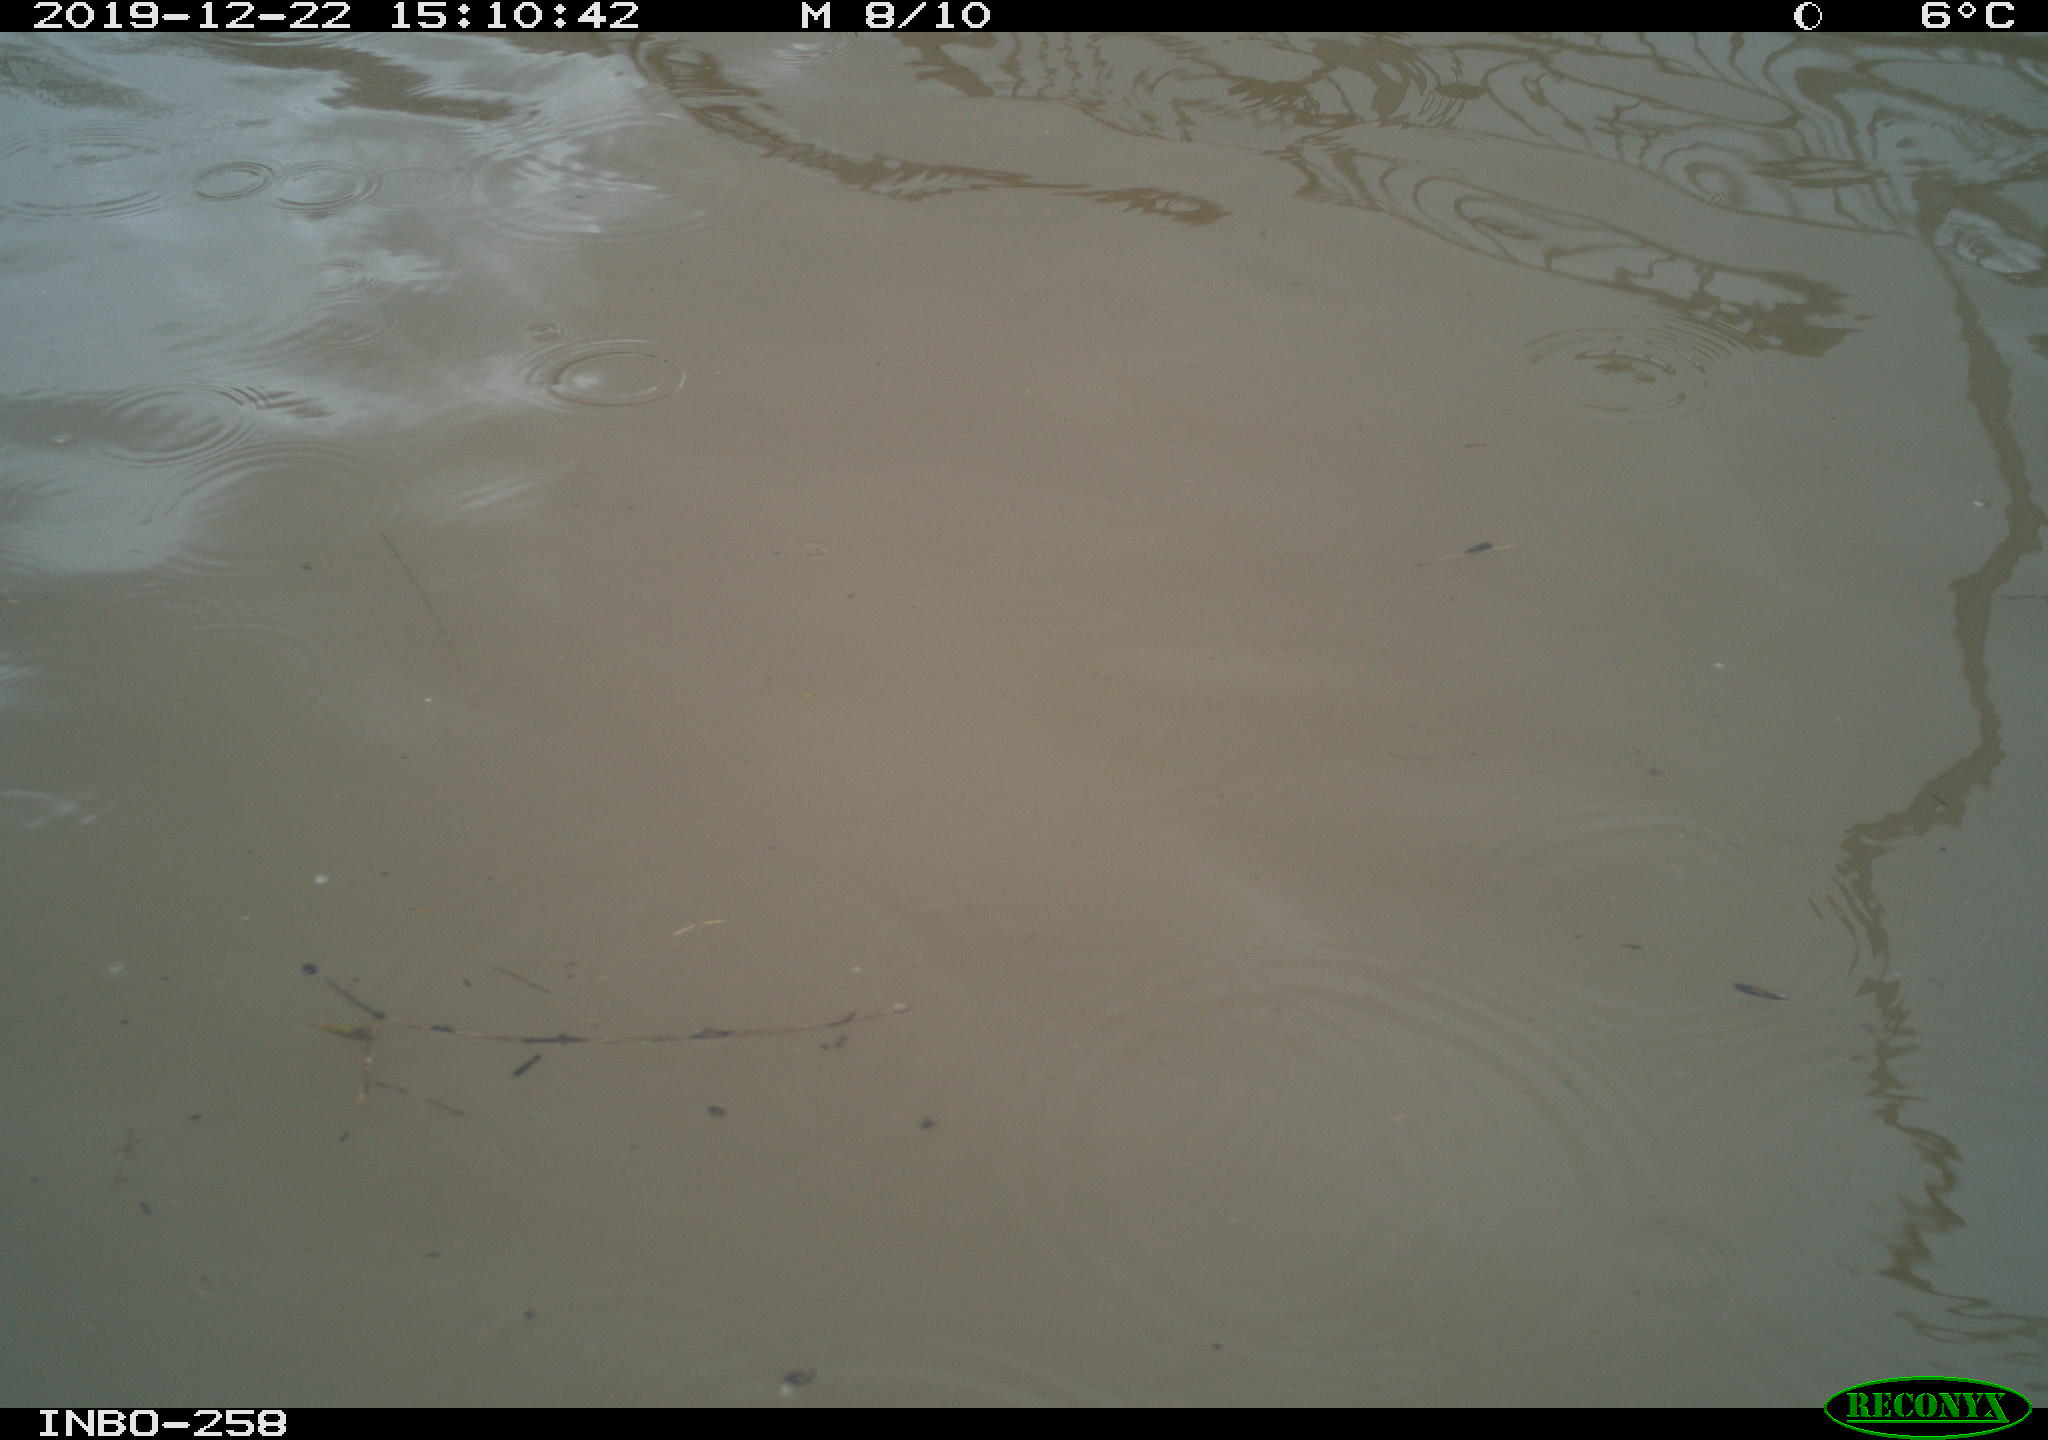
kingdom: Animalia
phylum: Chordata
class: Aves
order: Gruiformes
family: Rallidae
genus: Gallinula
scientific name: Gallinula chloropus
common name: Common moorhen
